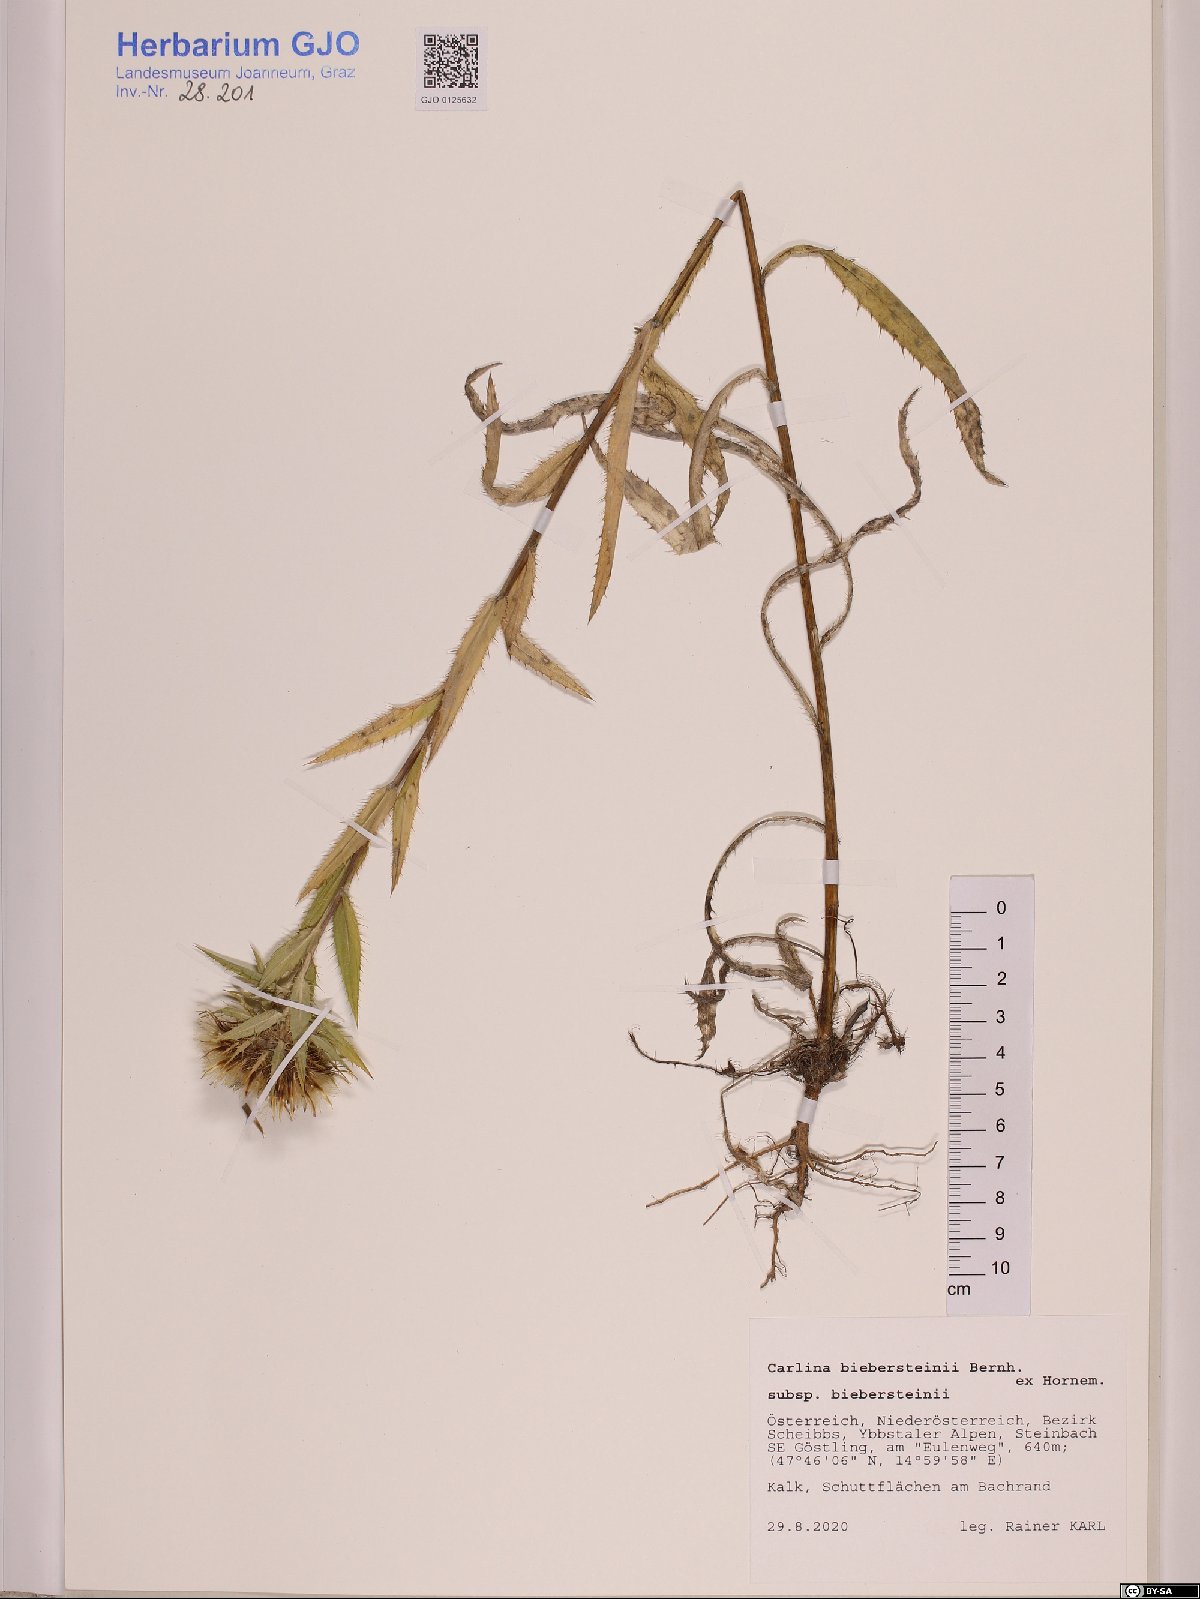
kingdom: Plantae
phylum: Tracheophyta
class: Magnoliopsida
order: Asterales
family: Asteraceae
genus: Carlina
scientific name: Carlina biebersteinii
